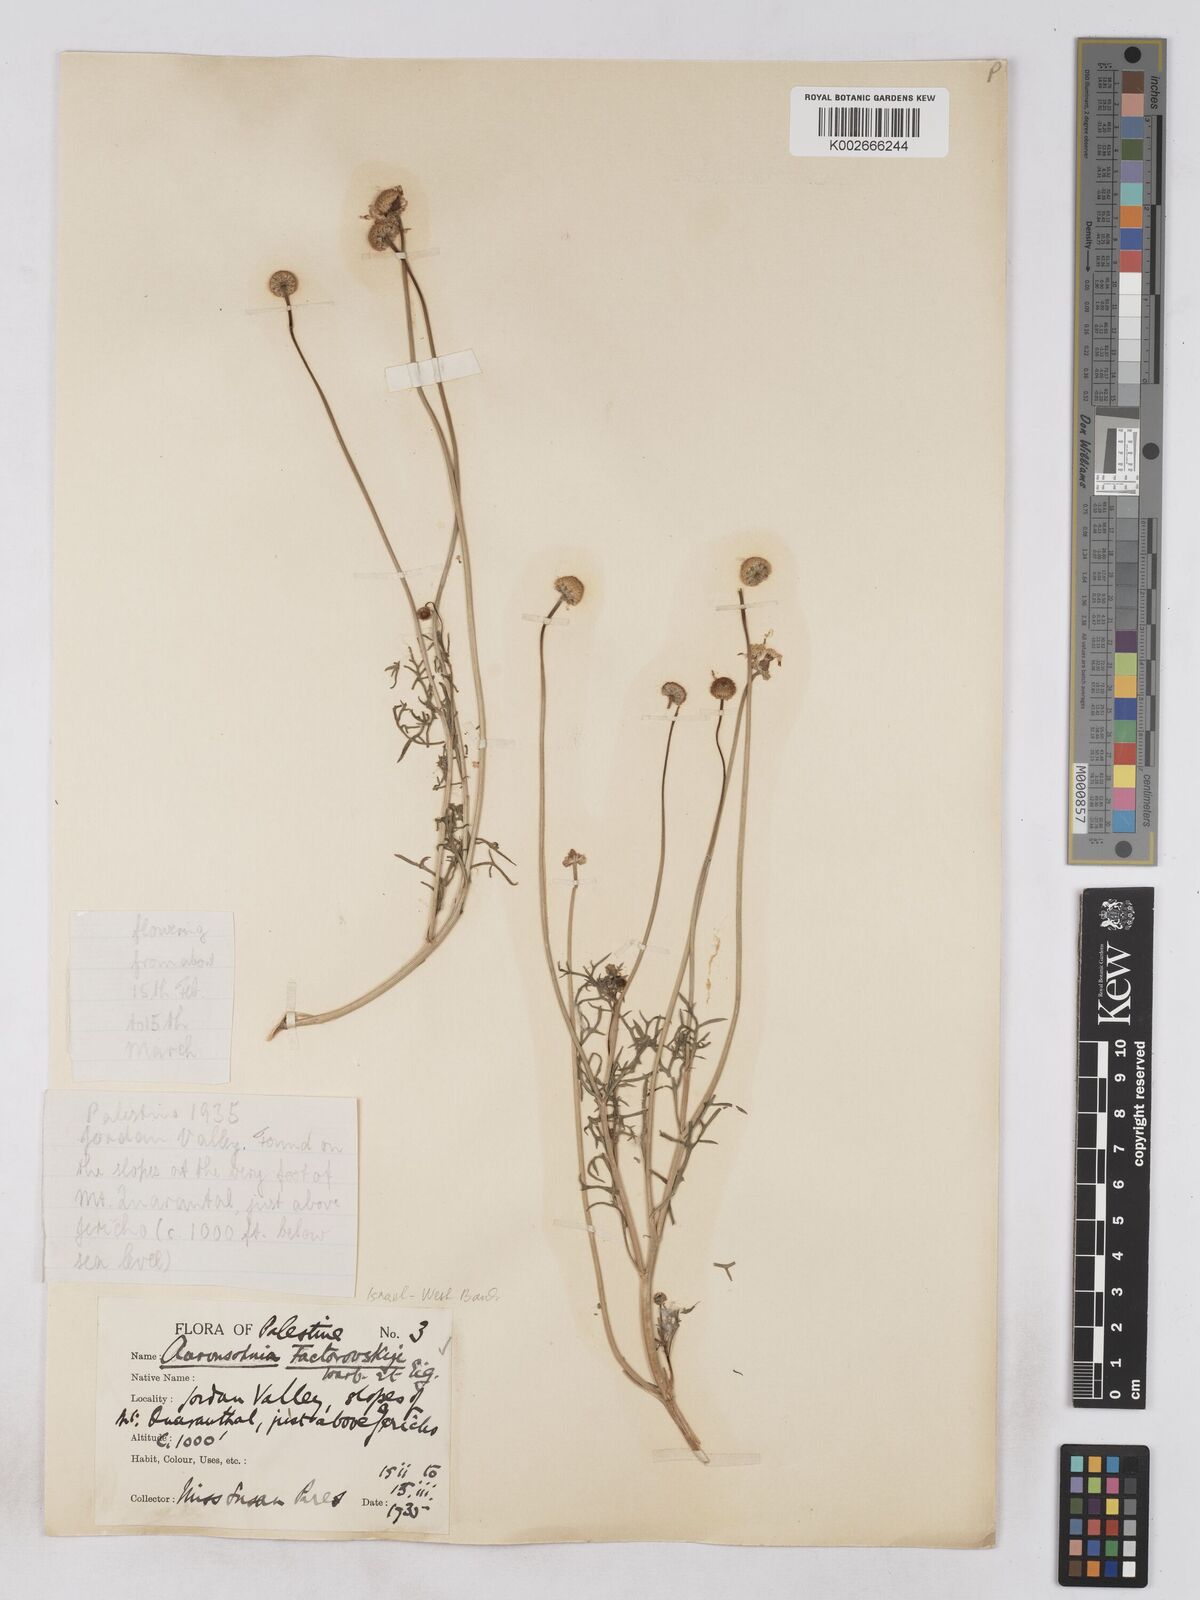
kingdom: Plantae
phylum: Tracheophyta
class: Magnoliopsida
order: Asterales
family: Asteraceae
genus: Otoglyphis
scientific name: Otoglyphis factorovskyi
